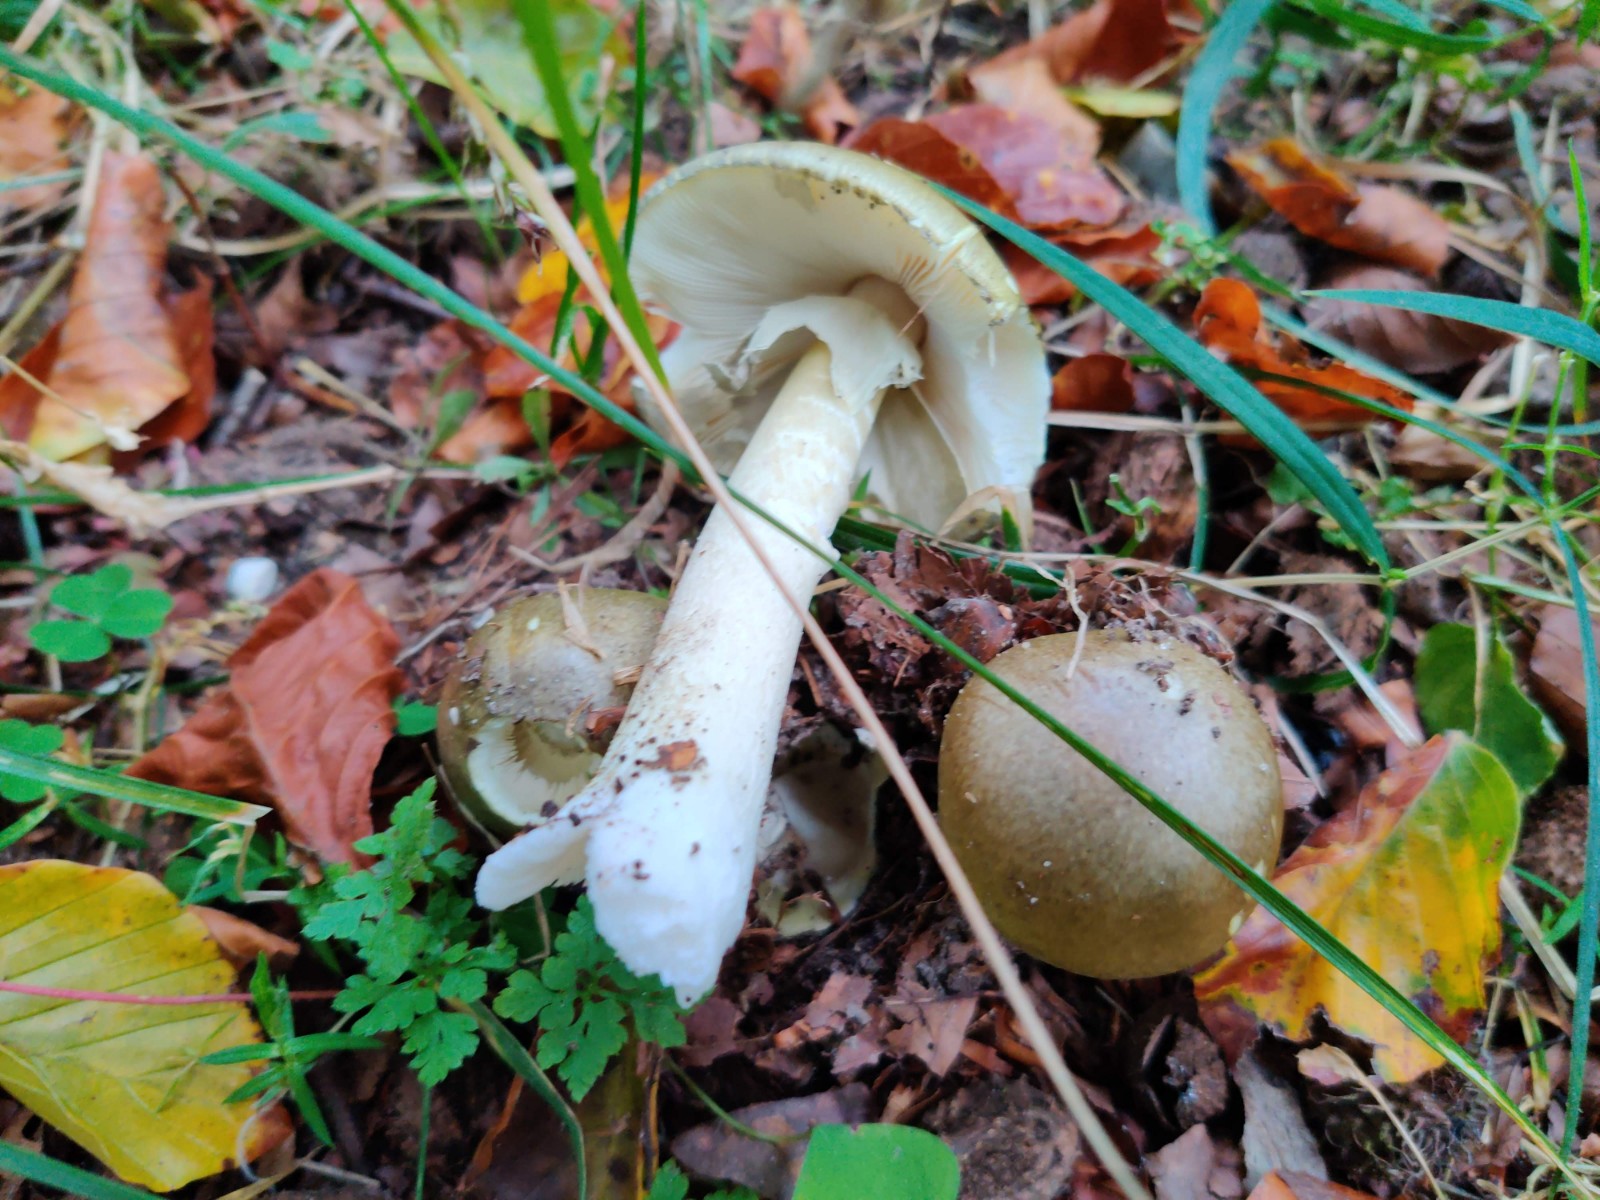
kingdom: Fungi
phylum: Basidiomycota
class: Agaricomycetes
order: Agaricales
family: Amanitaceae
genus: Amanita
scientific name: Amanita phalloides
